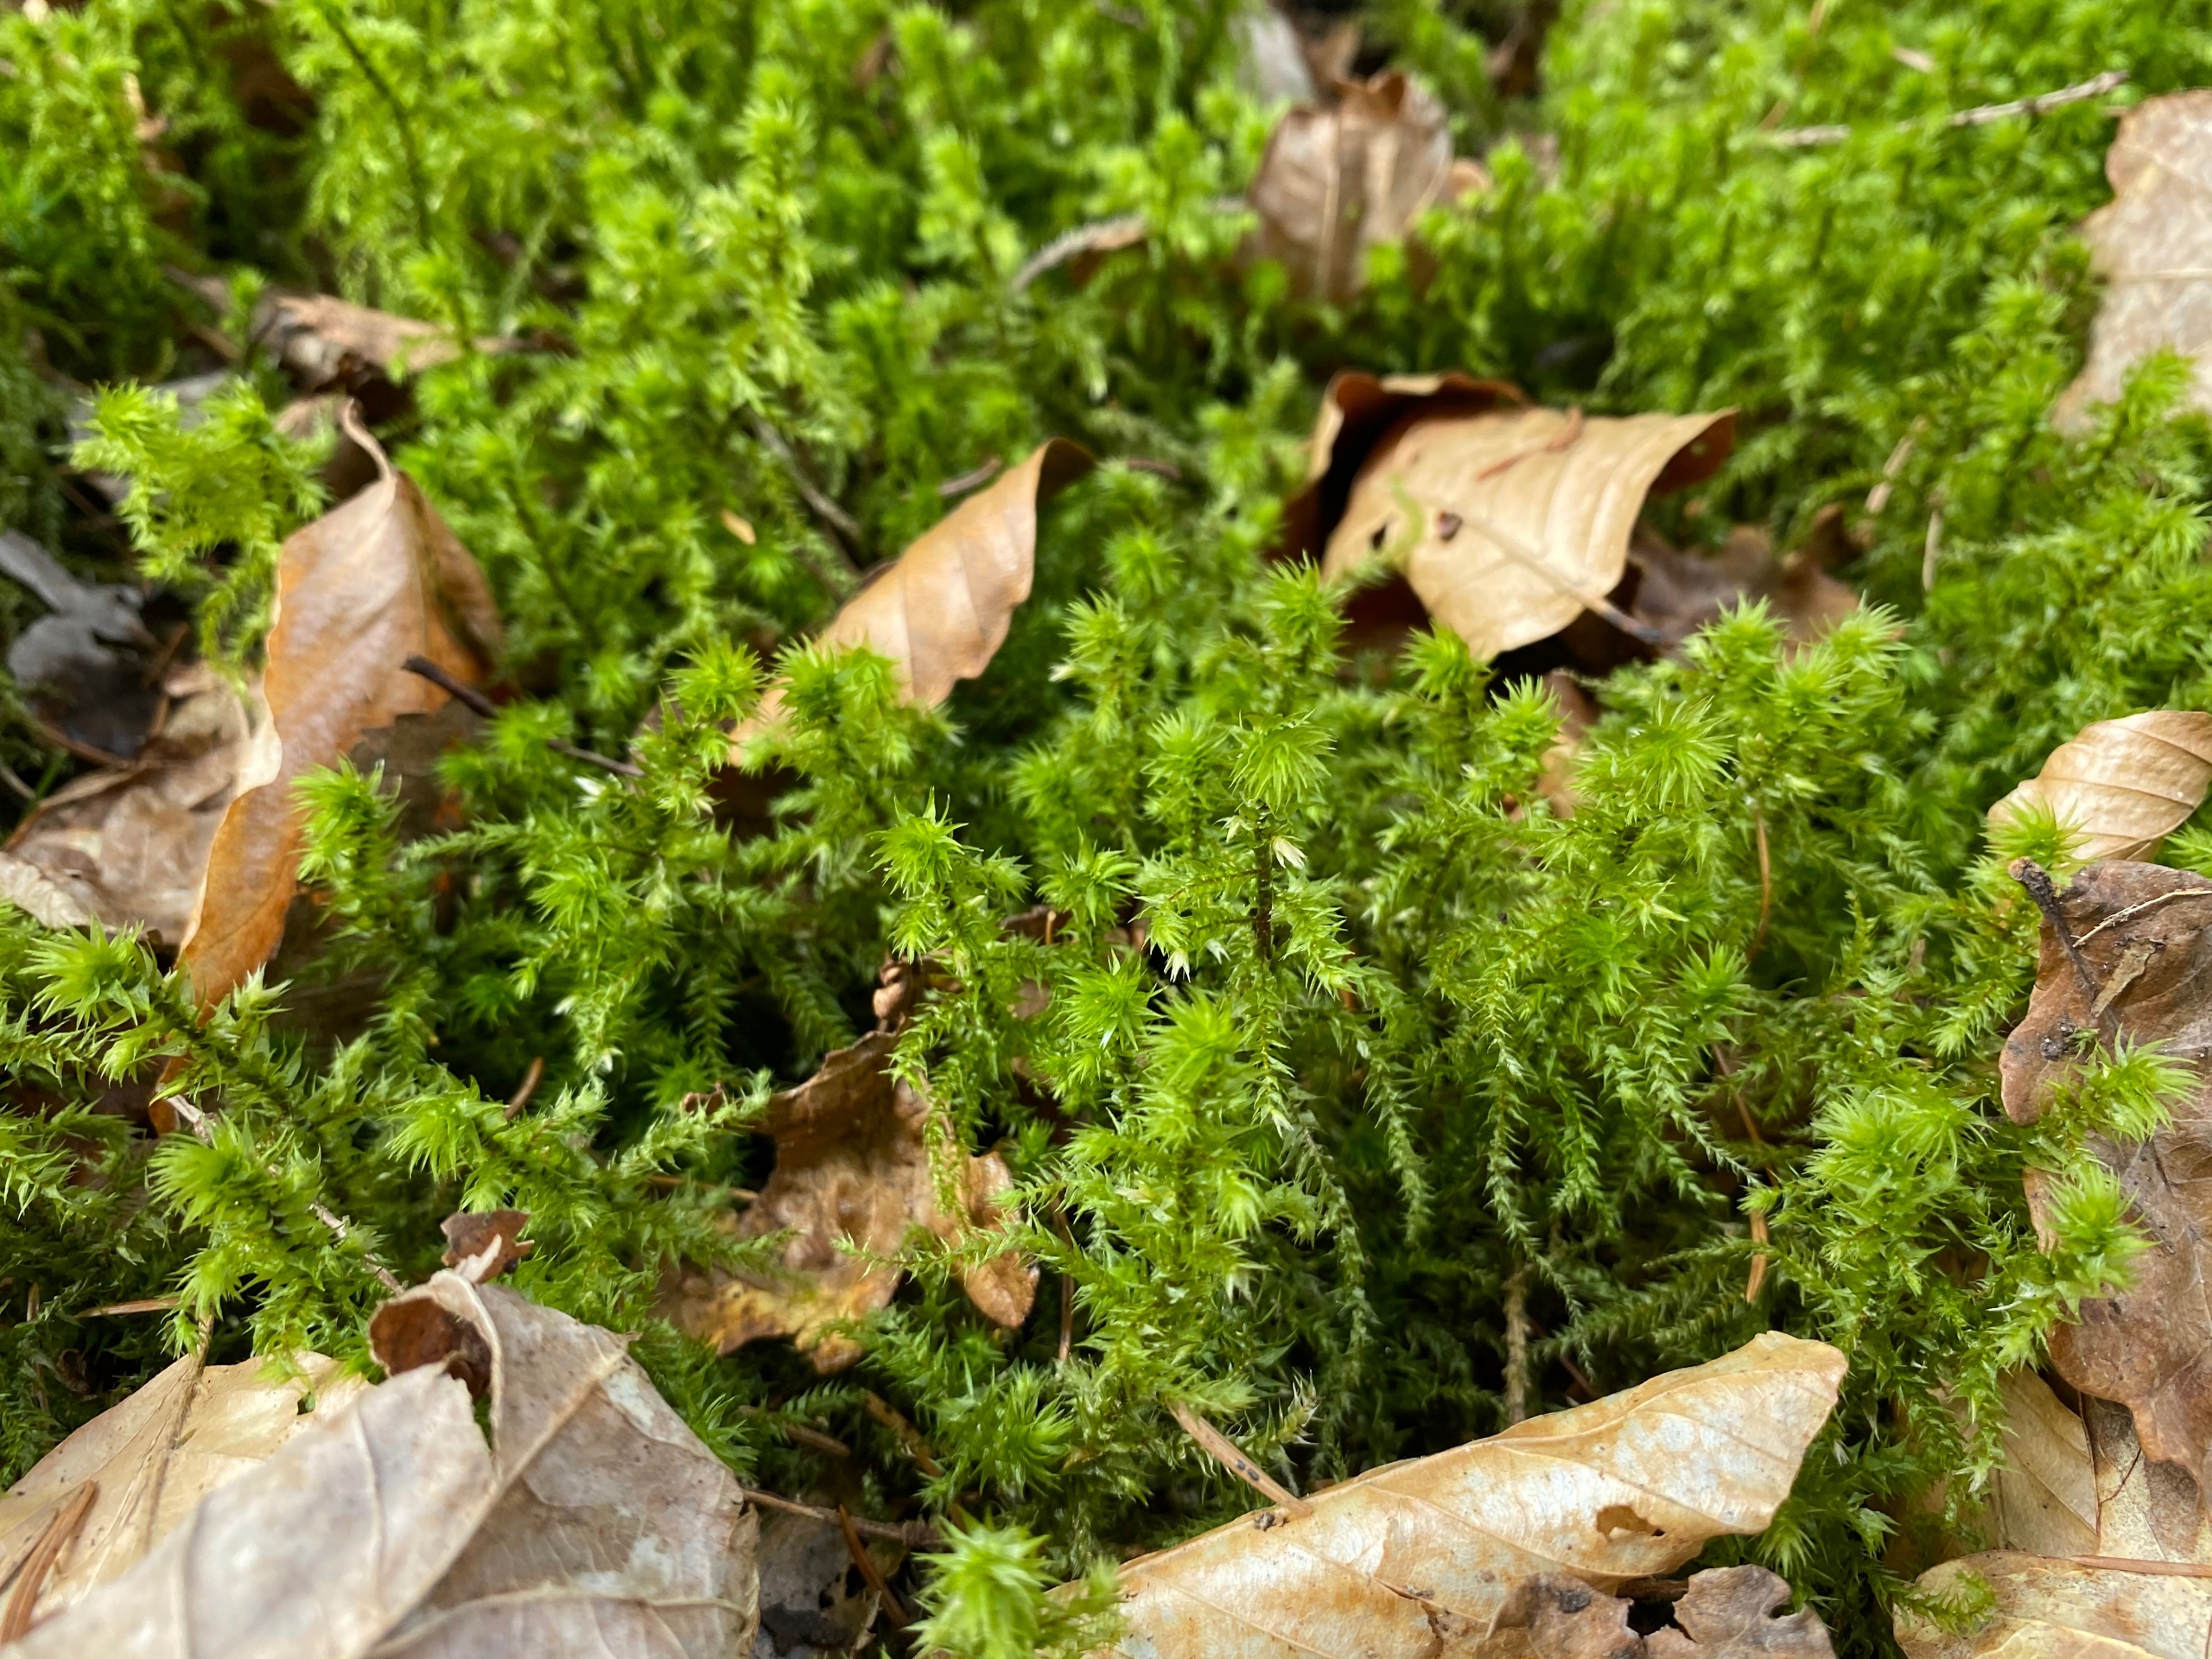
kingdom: Plantae
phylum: Bryophyta
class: Bryopsida
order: Hypnales
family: Hylocomiaceae
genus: Hylocomiadelphus
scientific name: Hylocomiadelphus triquetrus
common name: Stor kransemos
